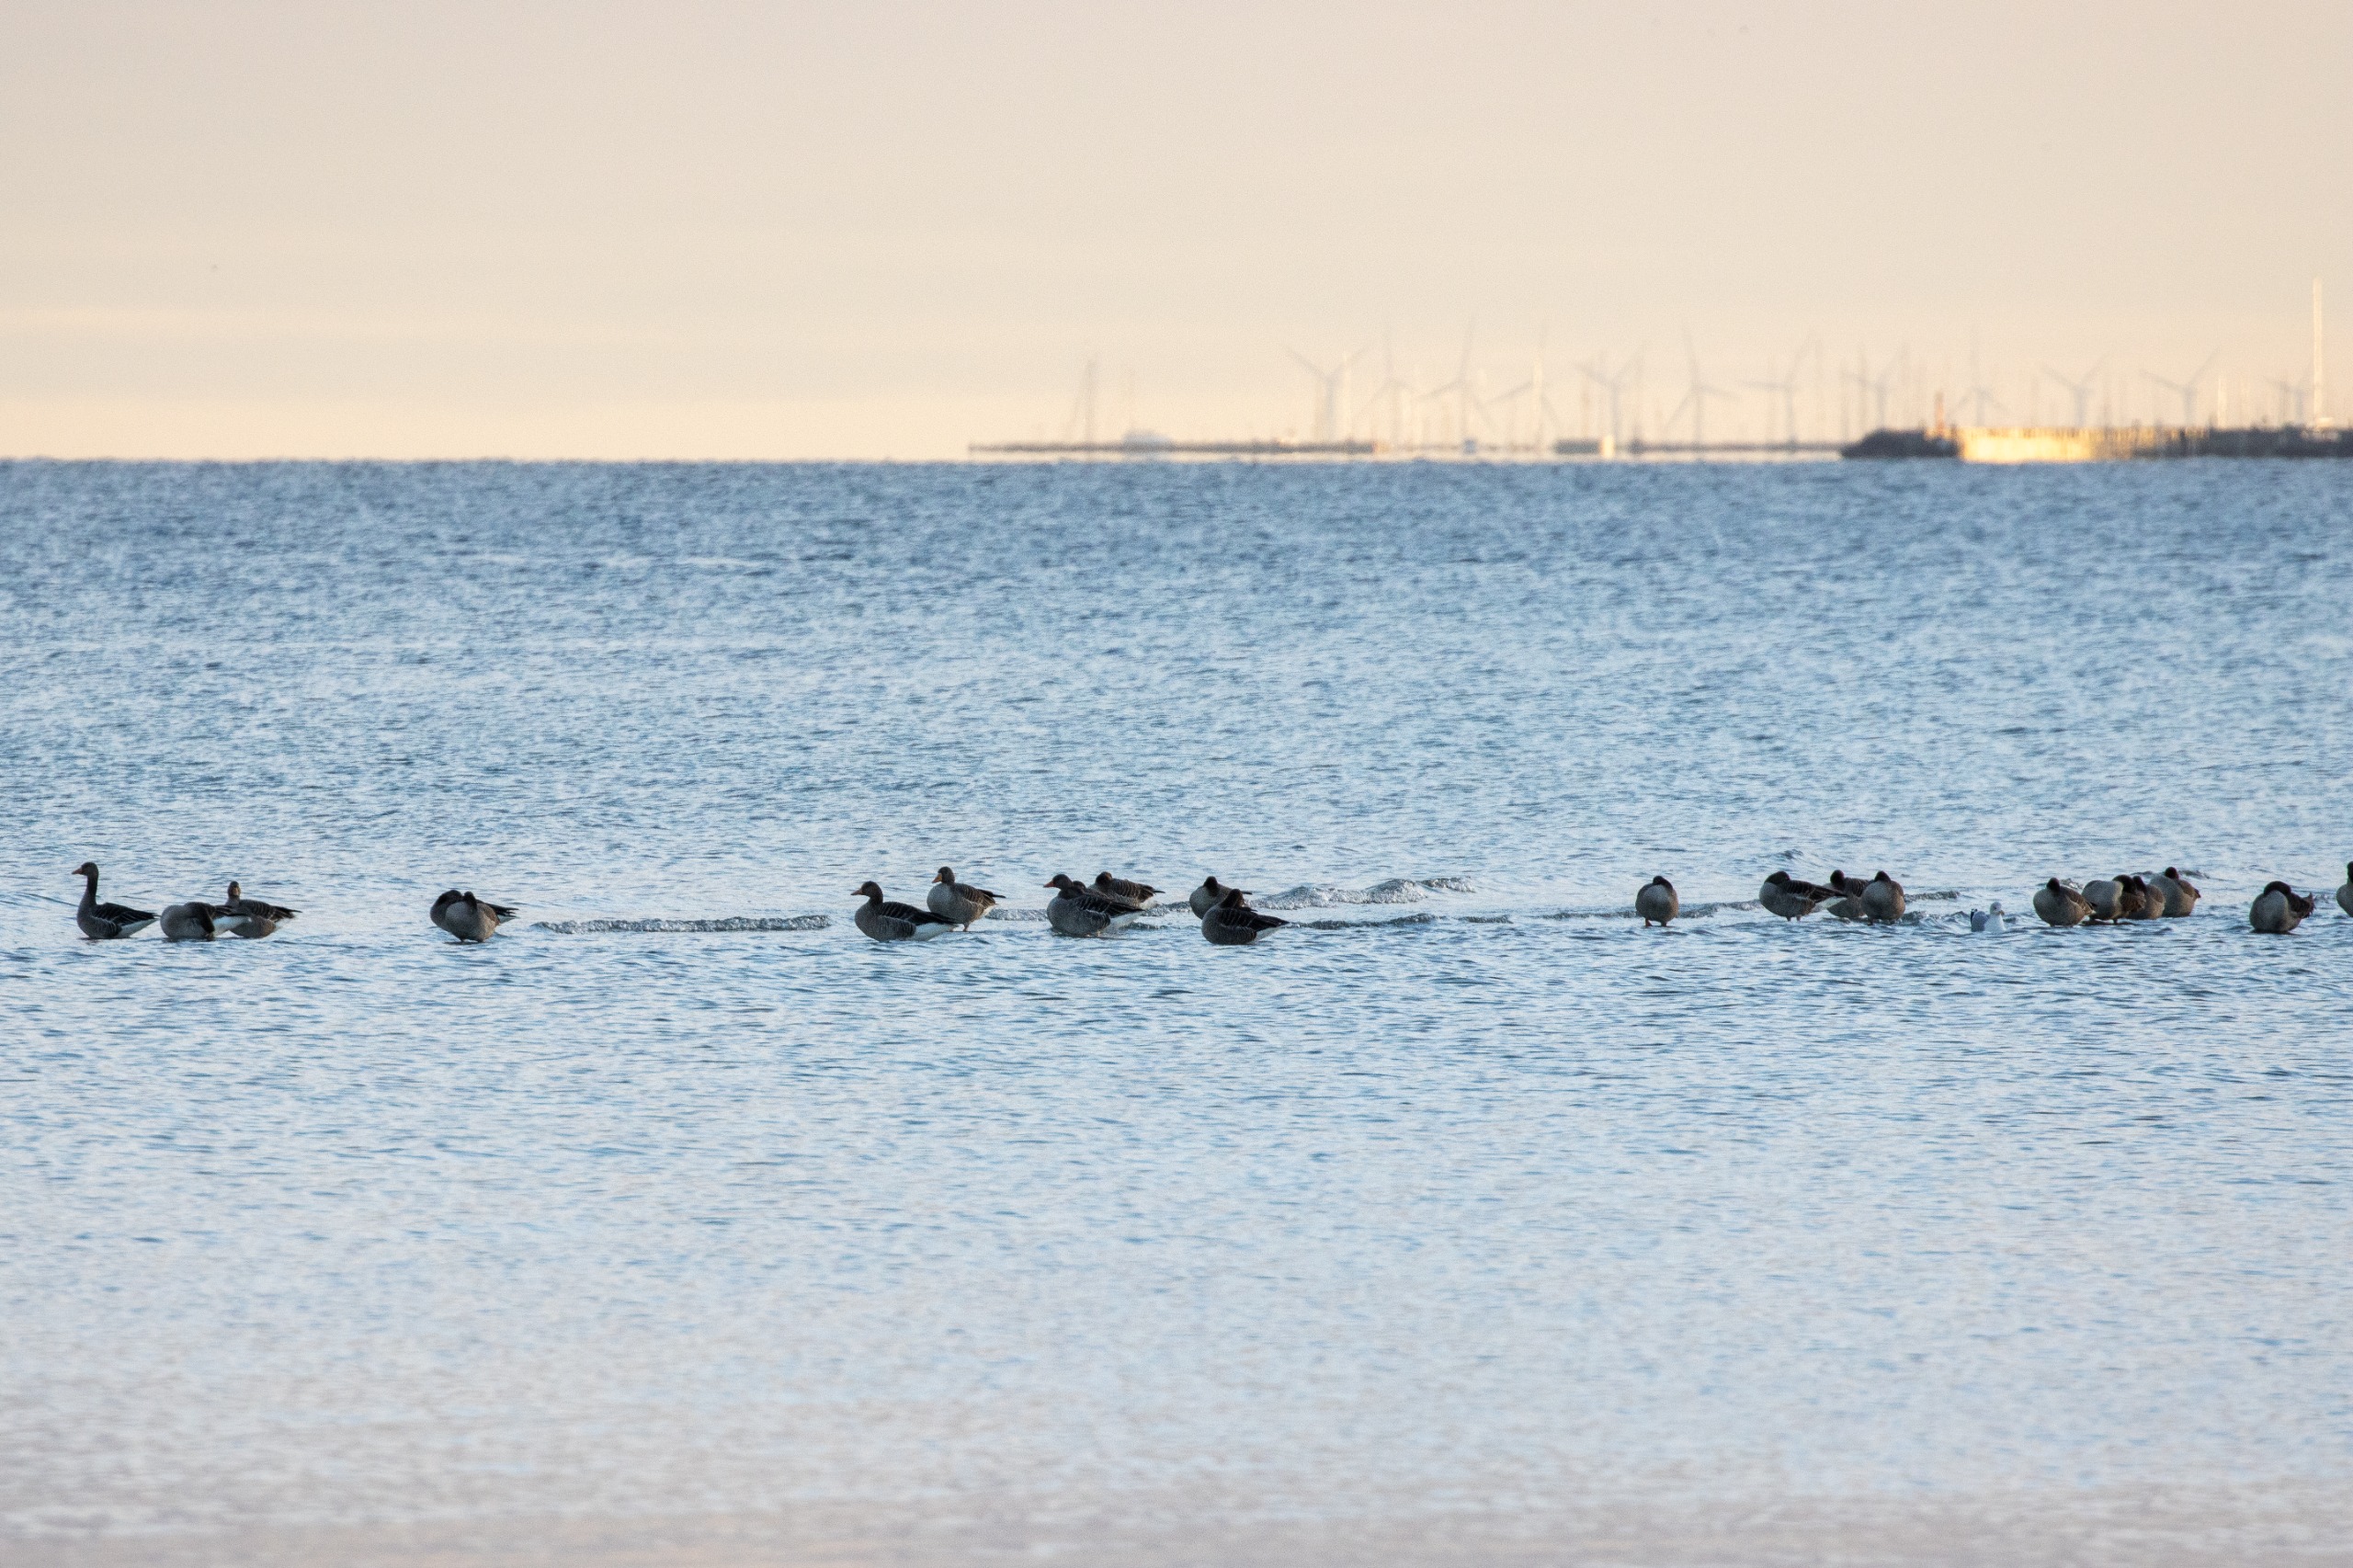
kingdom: Animalia
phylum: Chordata
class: Aves
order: Anseriformes
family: Anatidae
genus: Anser
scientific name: Anser anser
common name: Grågås
